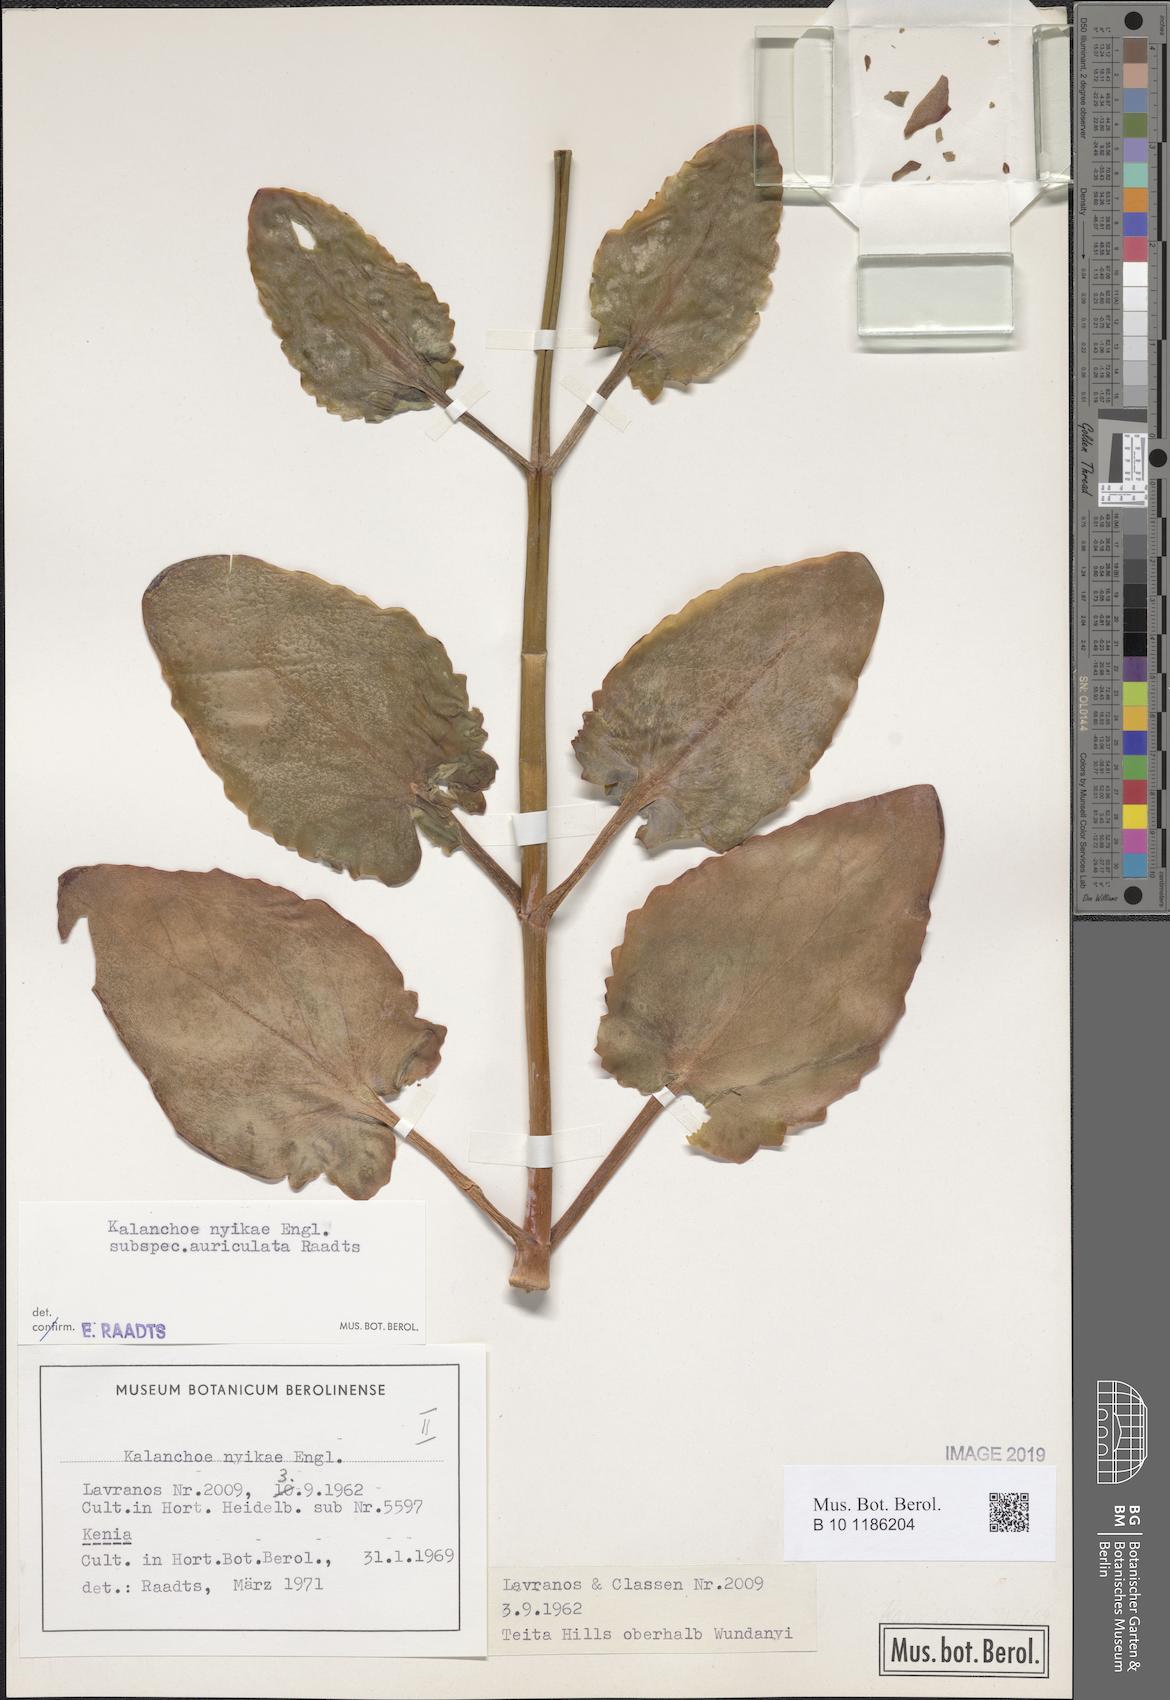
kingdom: Plantae
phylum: Tracheophyta
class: Magnoliopsida
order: Saxifragales
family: Crassulaceae
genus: Kalanchoe
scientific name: Kalanchoe auriculata
